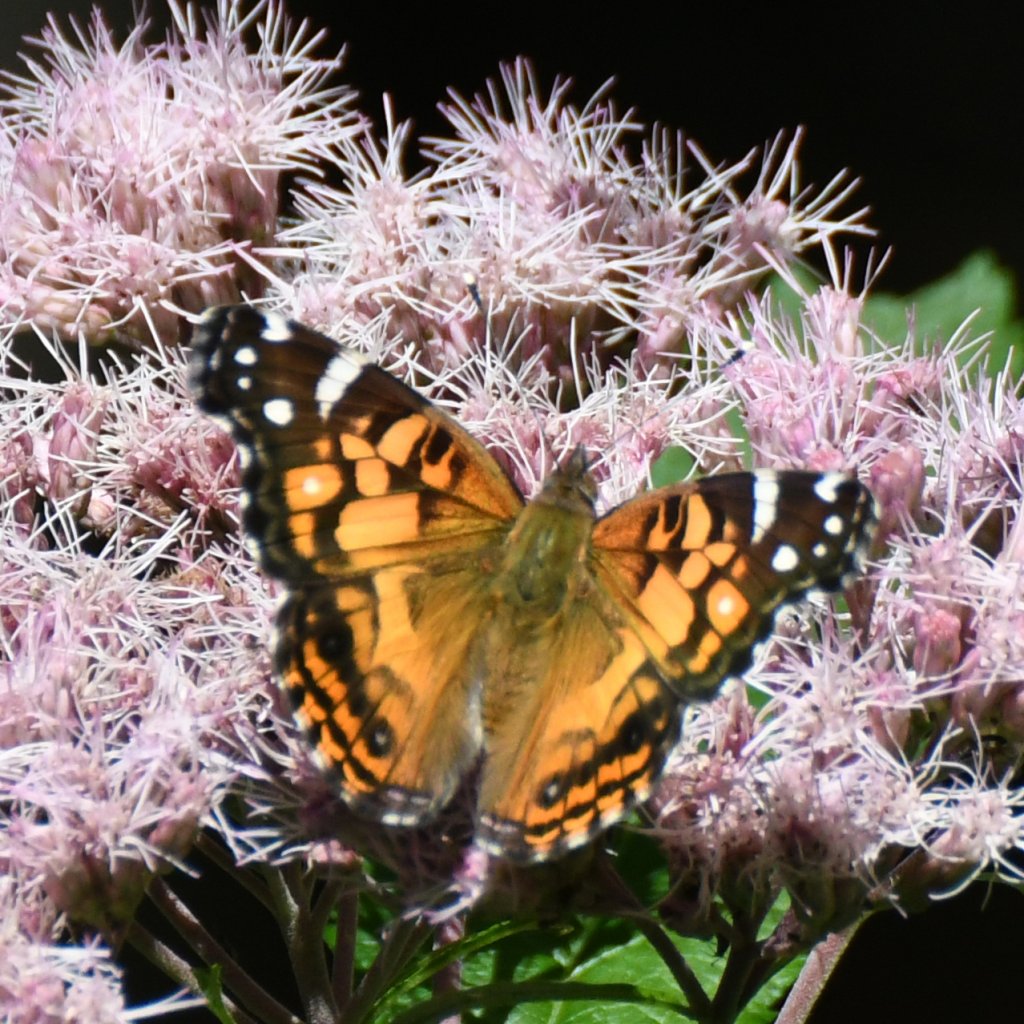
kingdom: Animalia
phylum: Arthropoda
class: Insecta
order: Lepidoptera
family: Nymphalidae
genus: Vanessa
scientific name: Vanessa virginiensis
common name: American Lady
